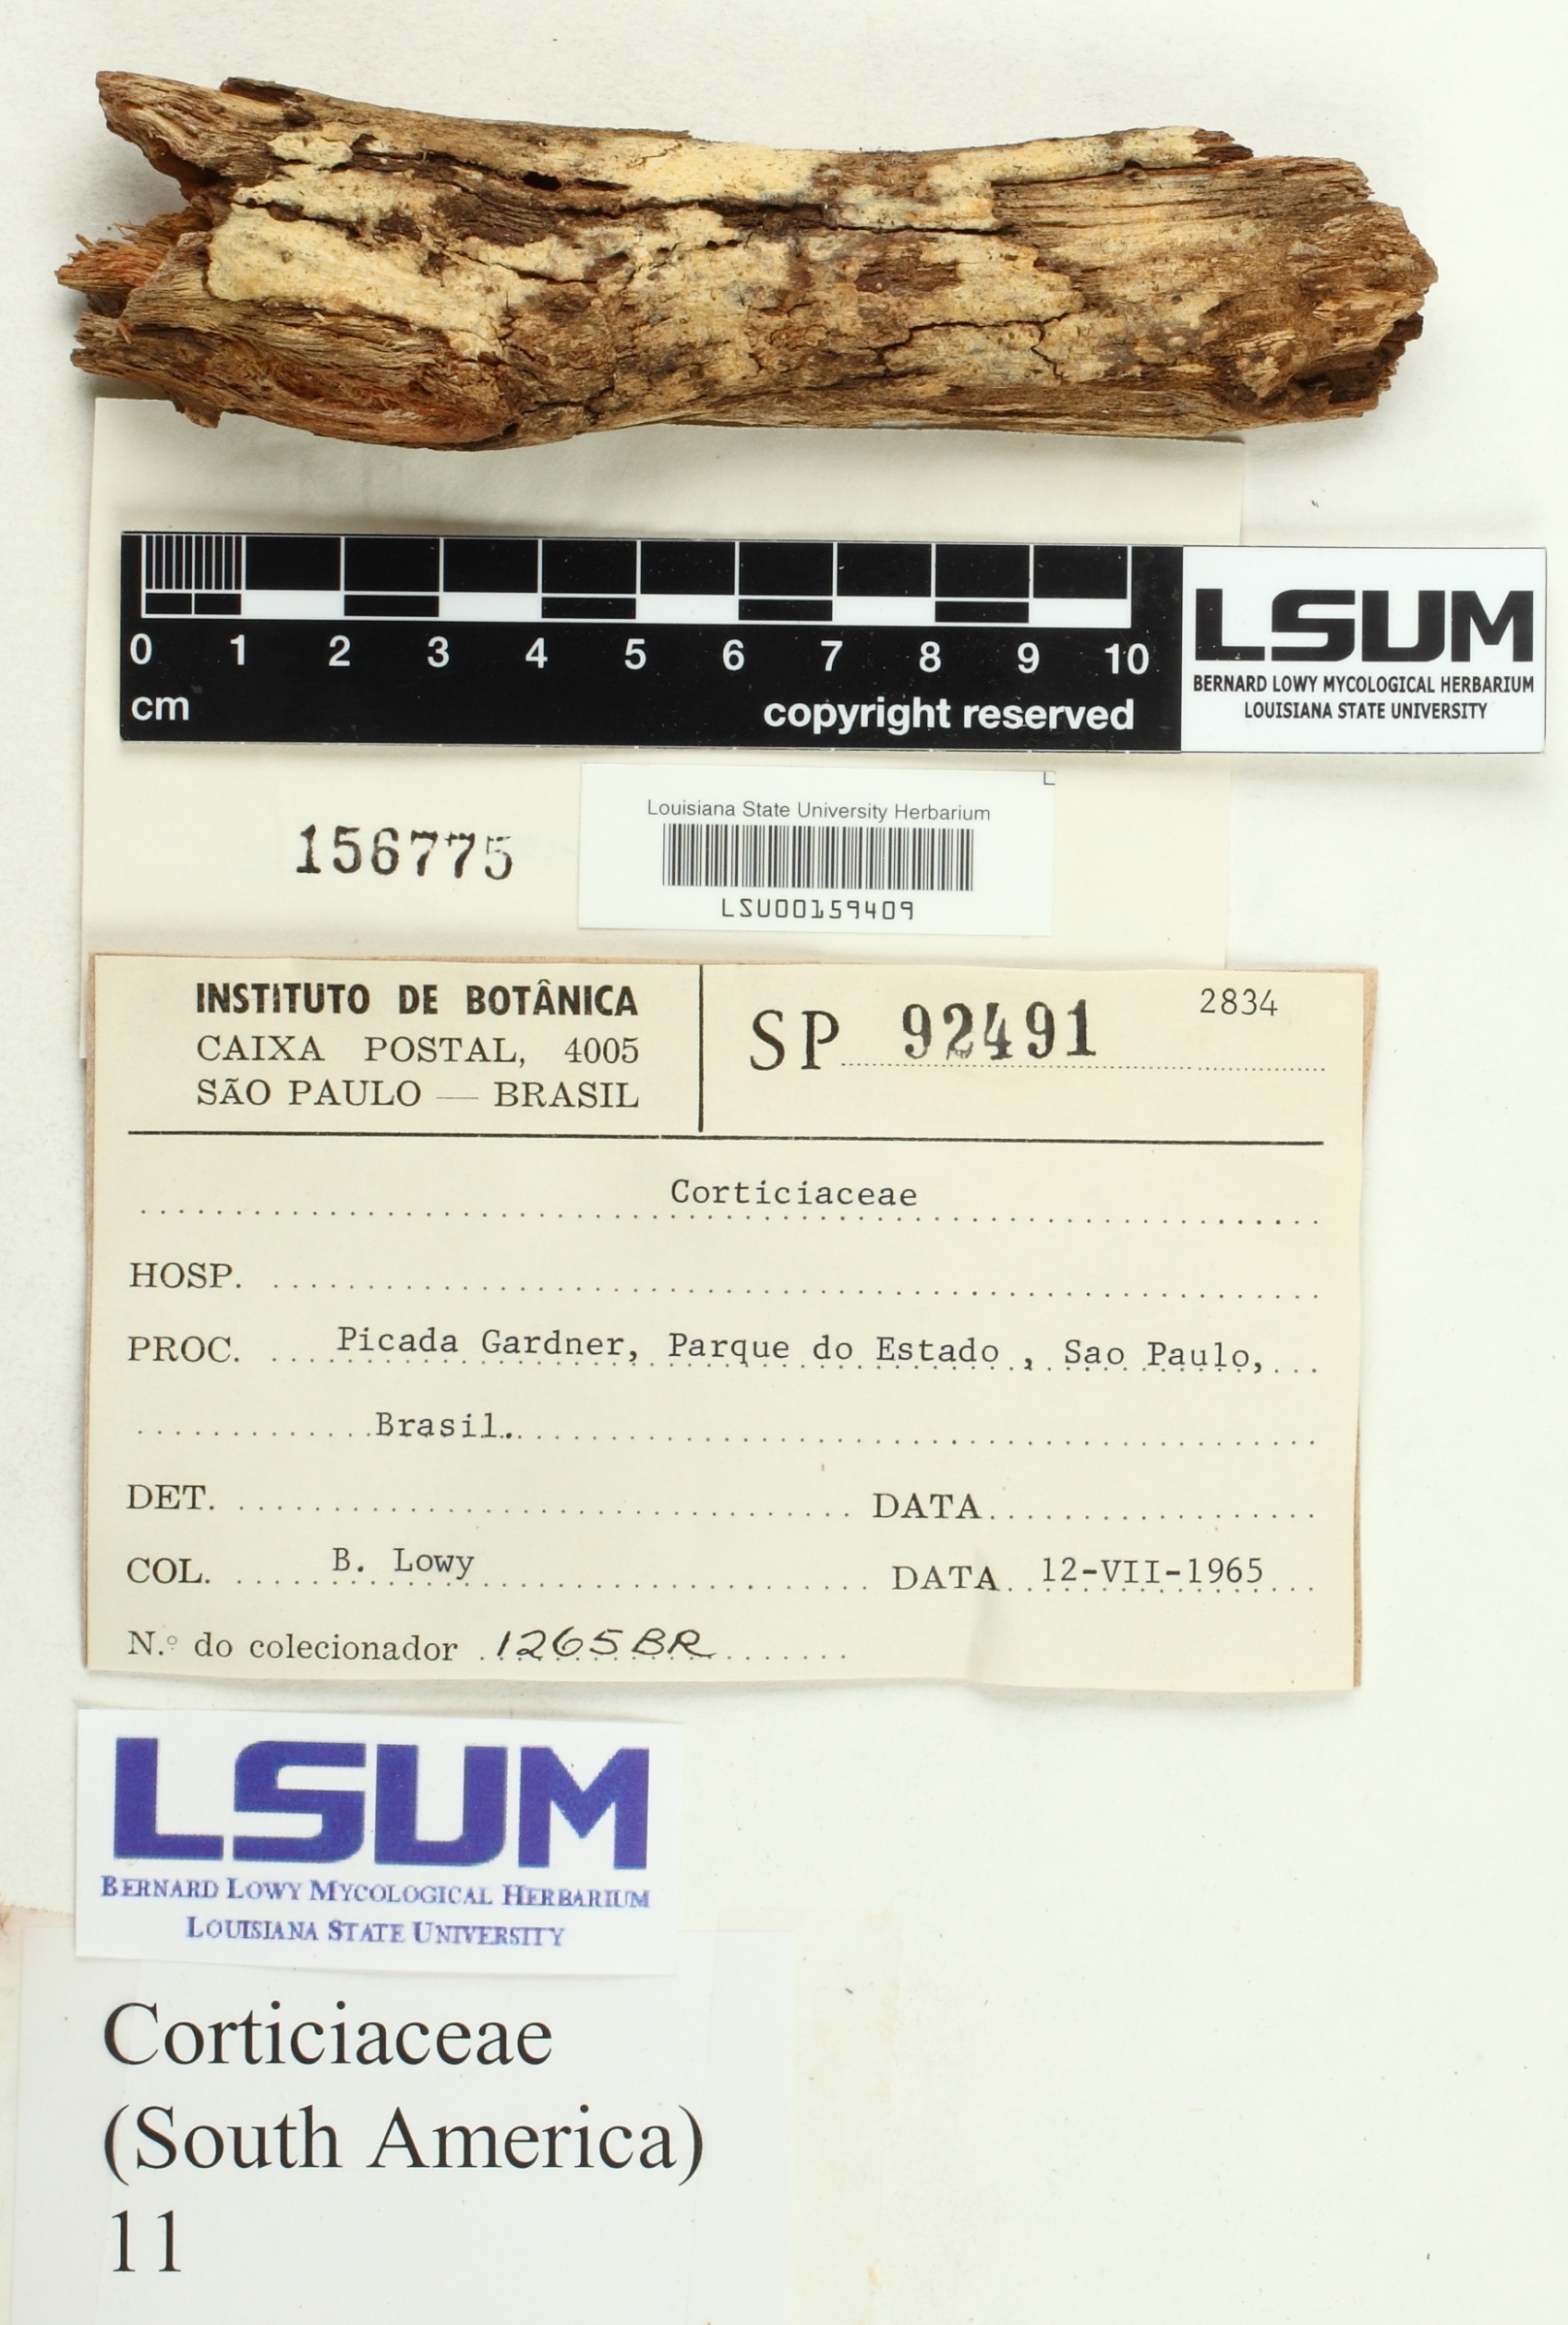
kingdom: Fungi
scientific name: Fungi
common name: Fungi
